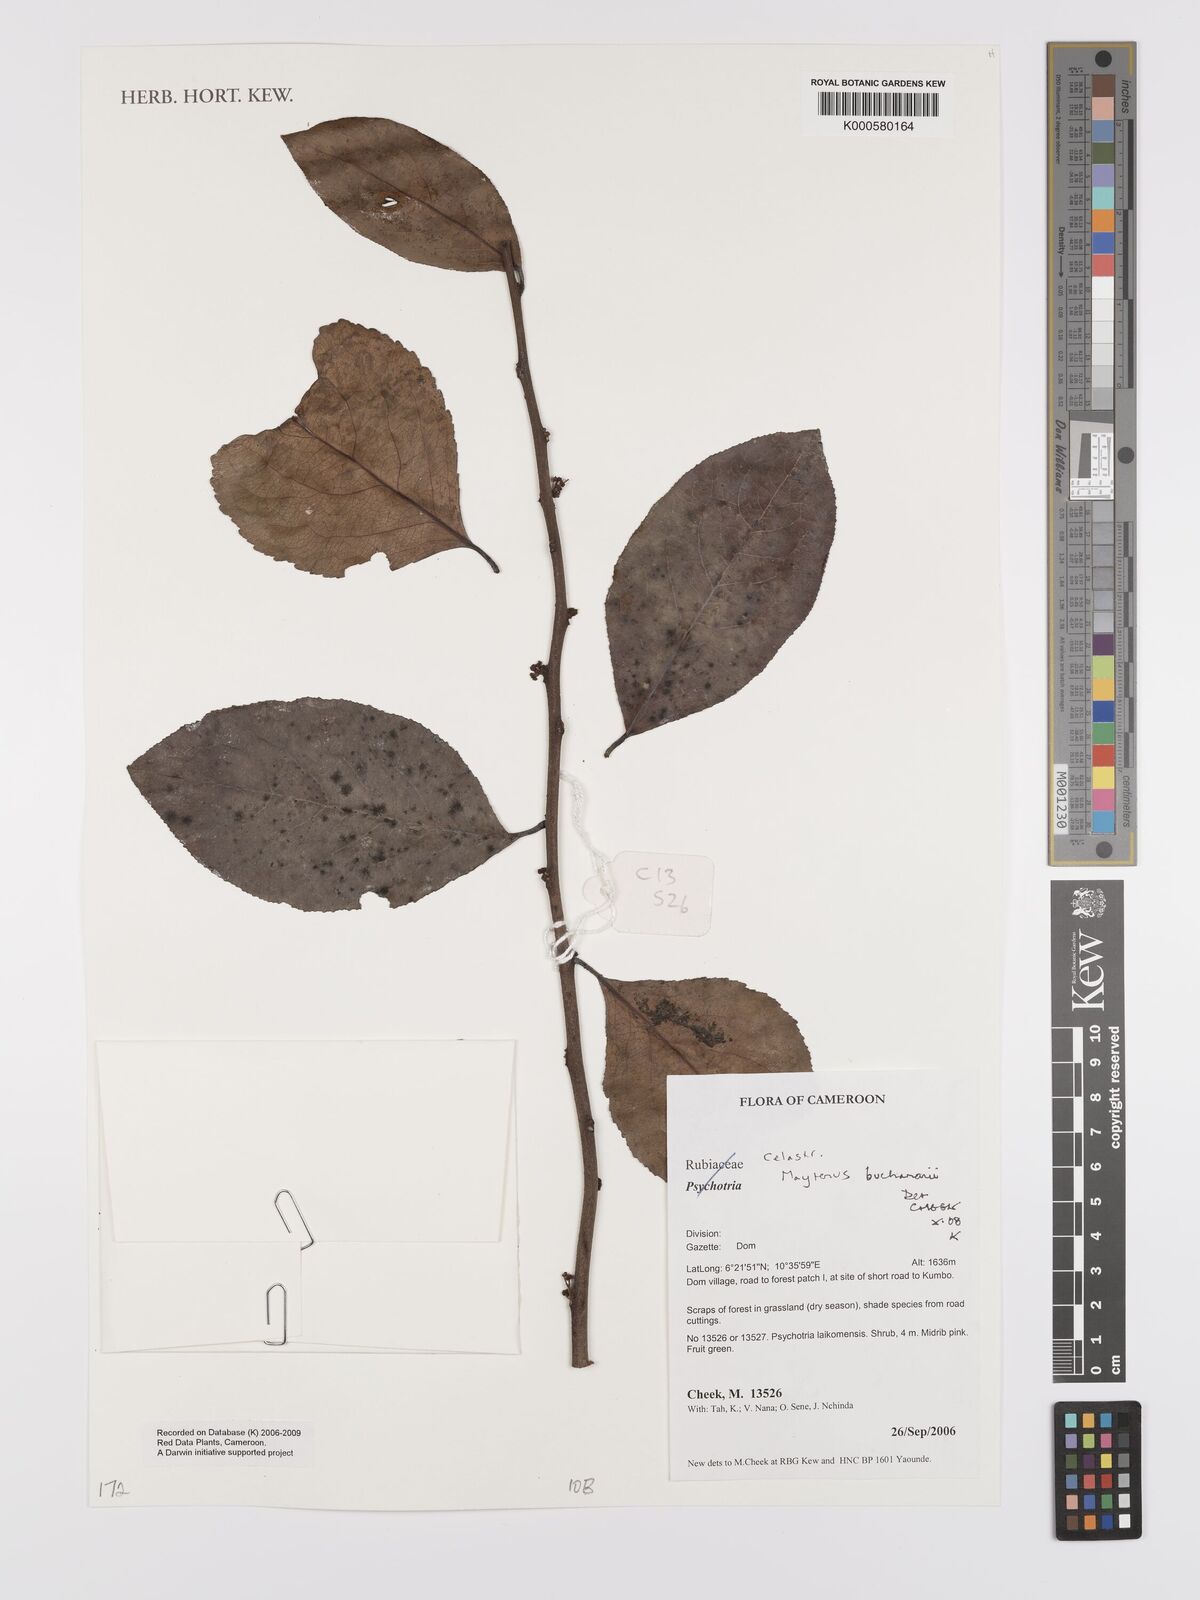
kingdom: Plantae
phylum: Tracheophyta
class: Magnoliopsida
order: Celastrales
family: Celastraceae
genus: Gymnosporia
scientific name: Gymnosporia buchananii
